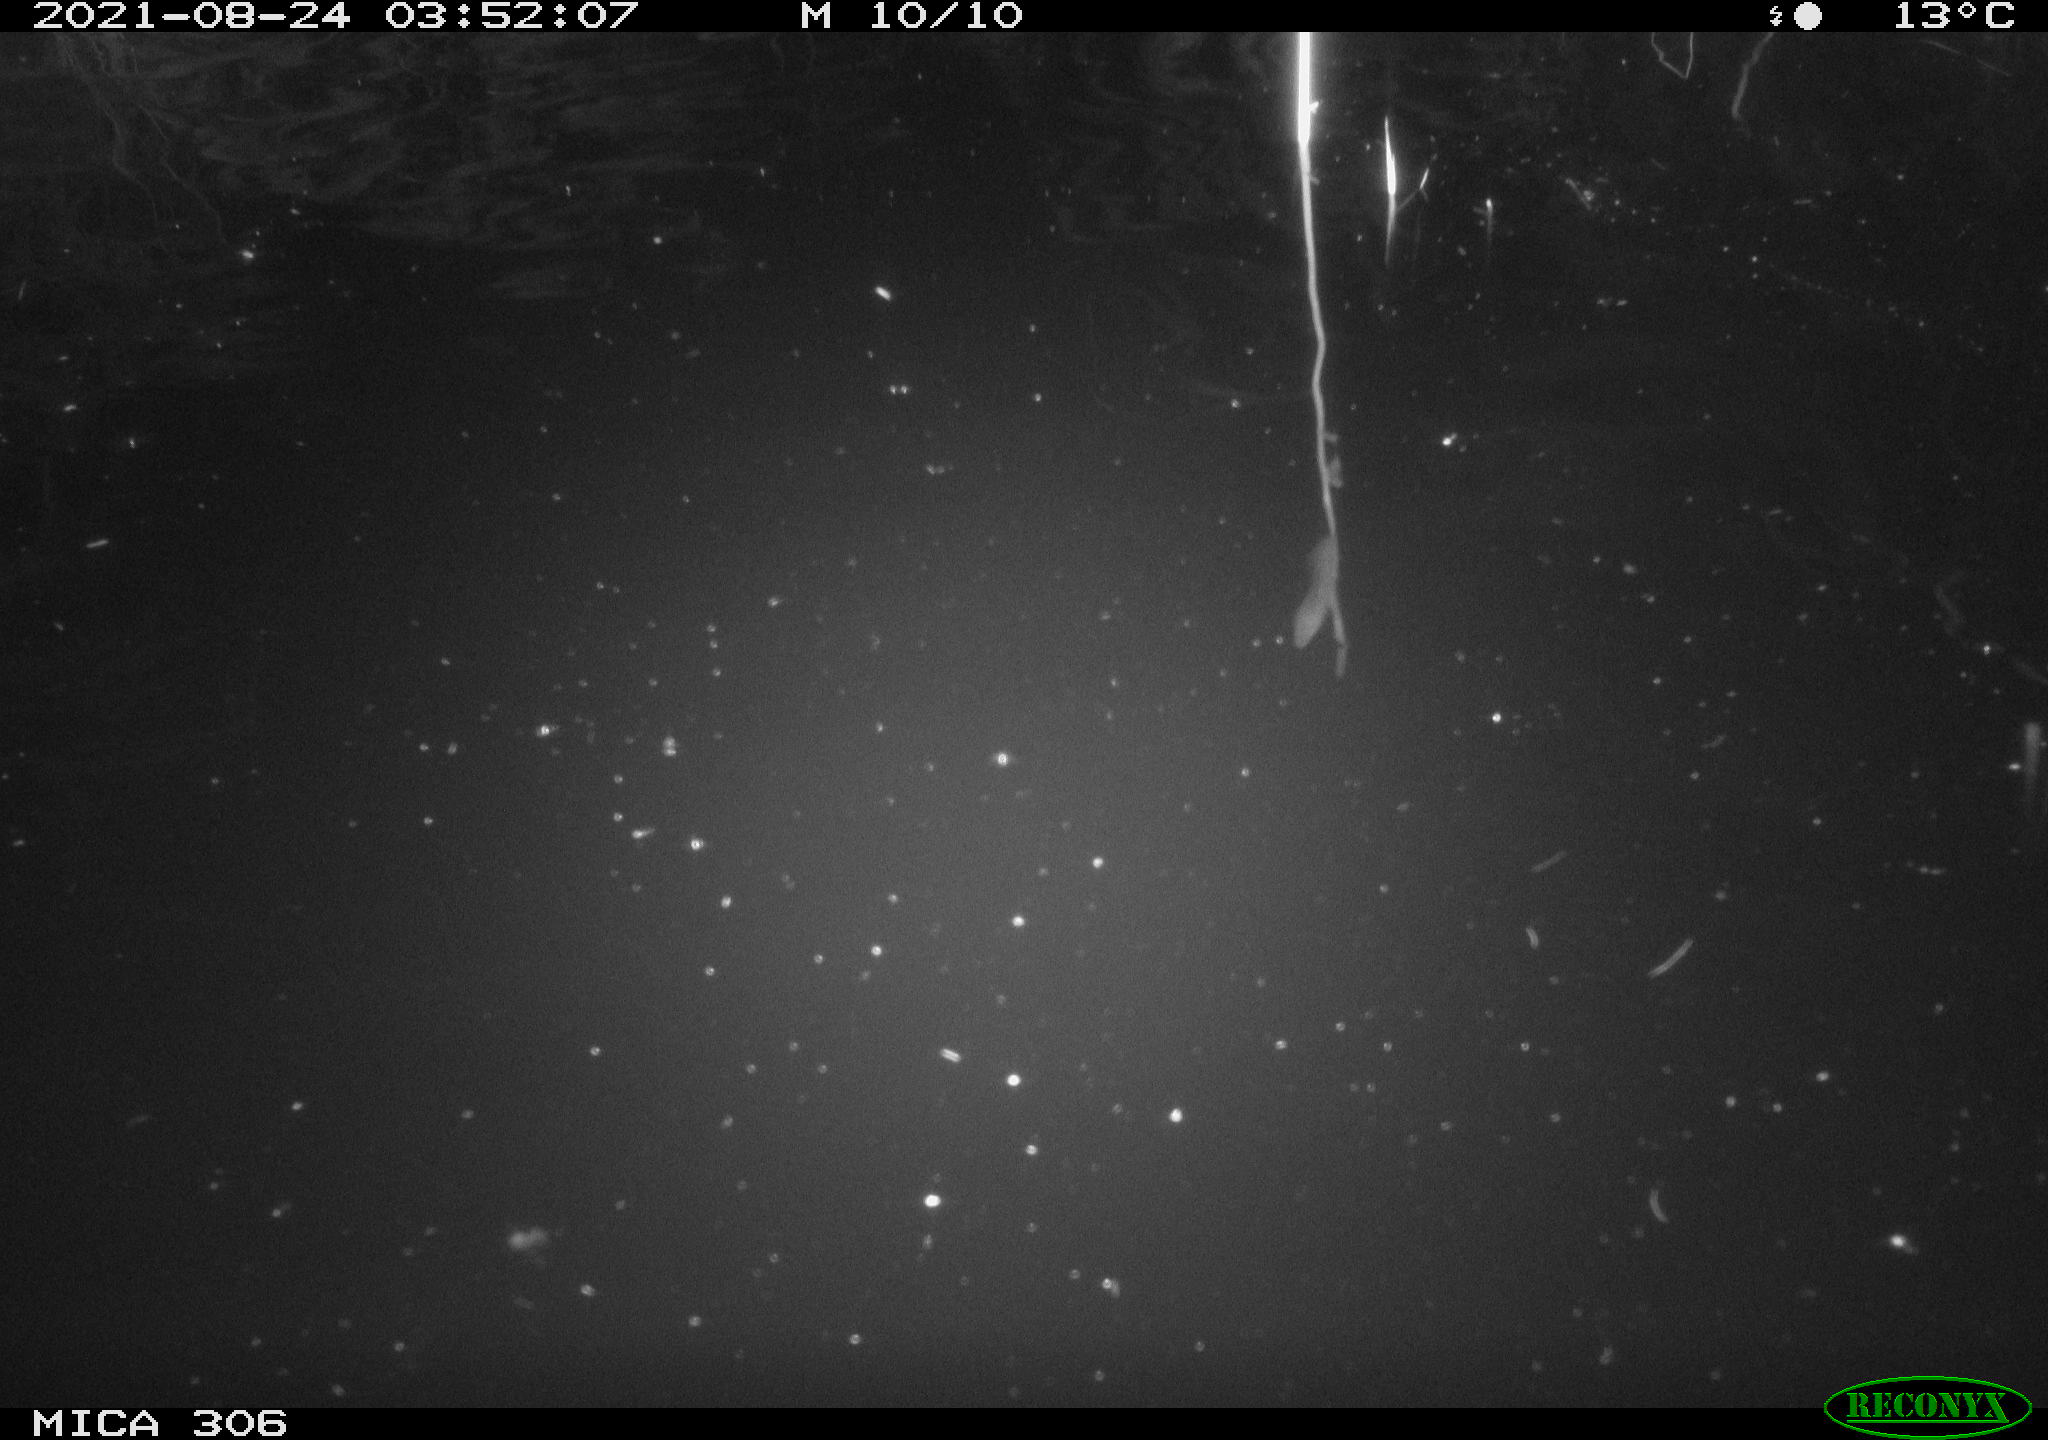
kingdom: Animalia
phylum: Chordata
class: Mammalia
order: Rodentia
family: Cricetidae
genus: Ondatra
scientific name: Ondatra zibethicus
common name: Muskrat
